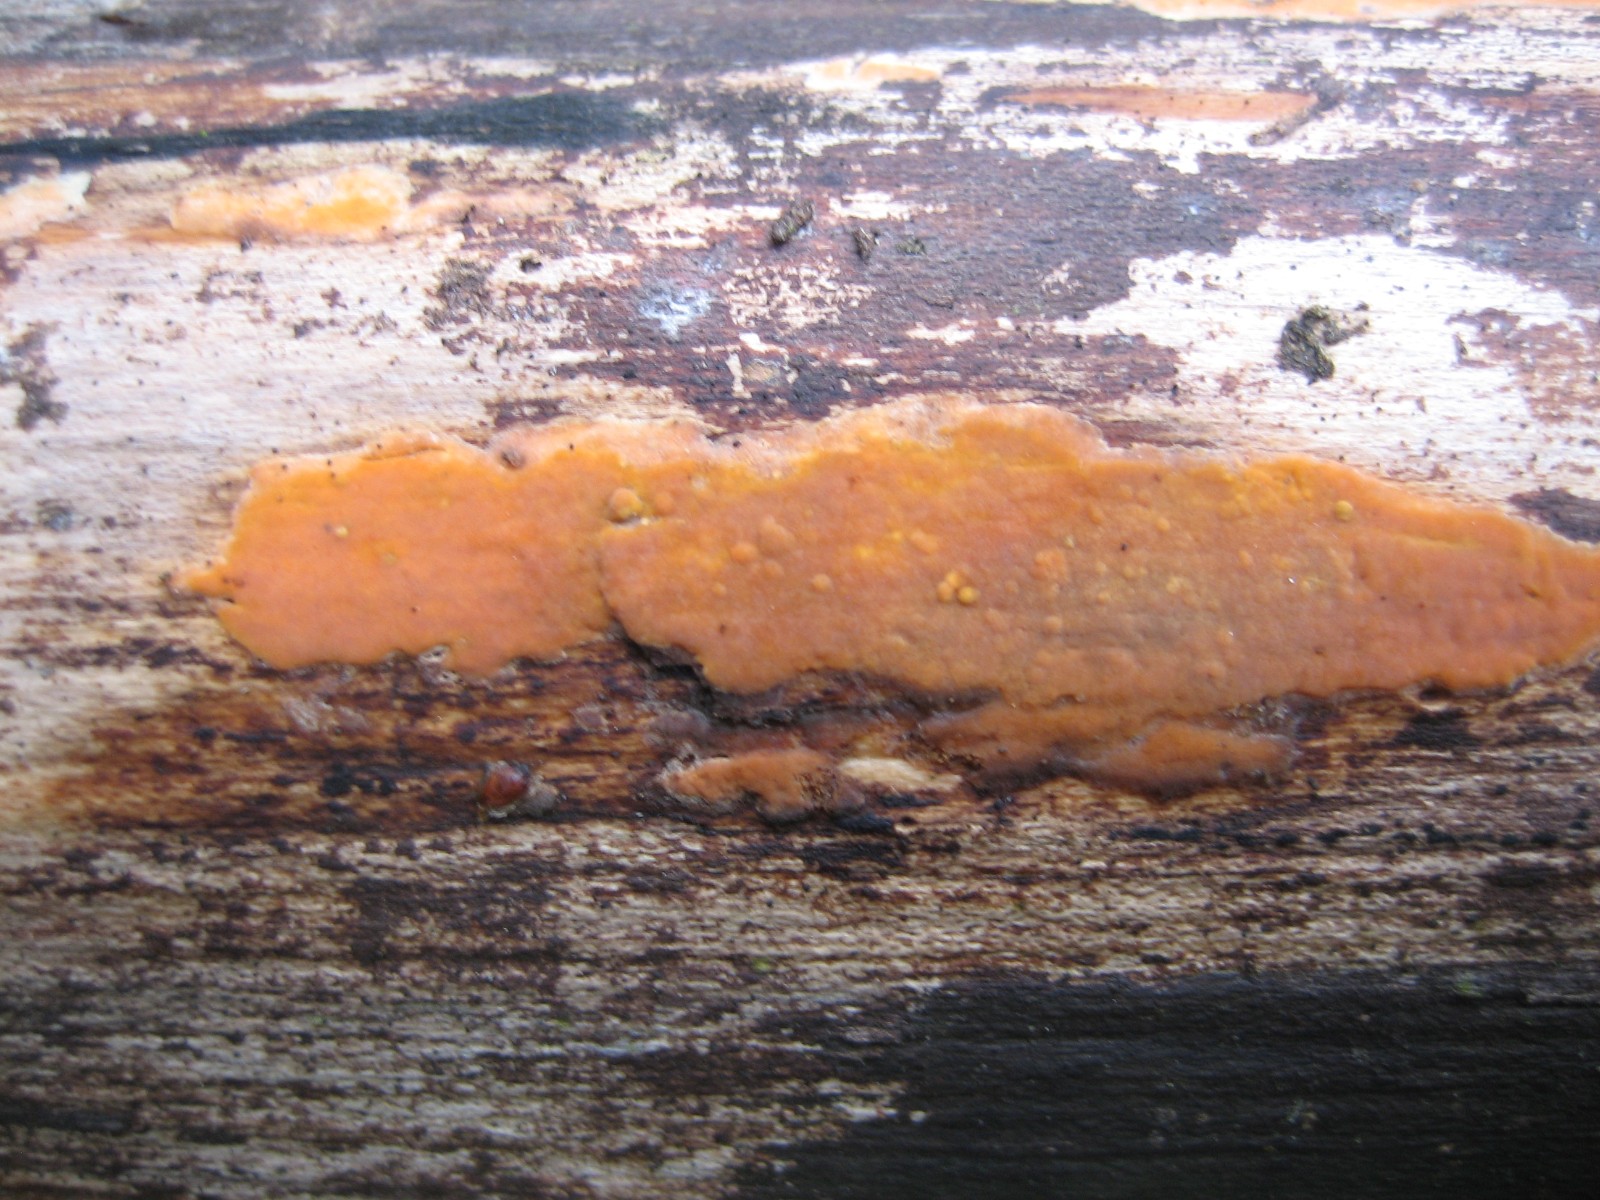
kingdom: Fungi
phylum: Basidiomycota
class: Agaricomycetes
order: Russulales
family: Peniophoraceae
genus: Peniophora
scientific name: Peniophora incarnata
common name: laksefarvet voksskind
